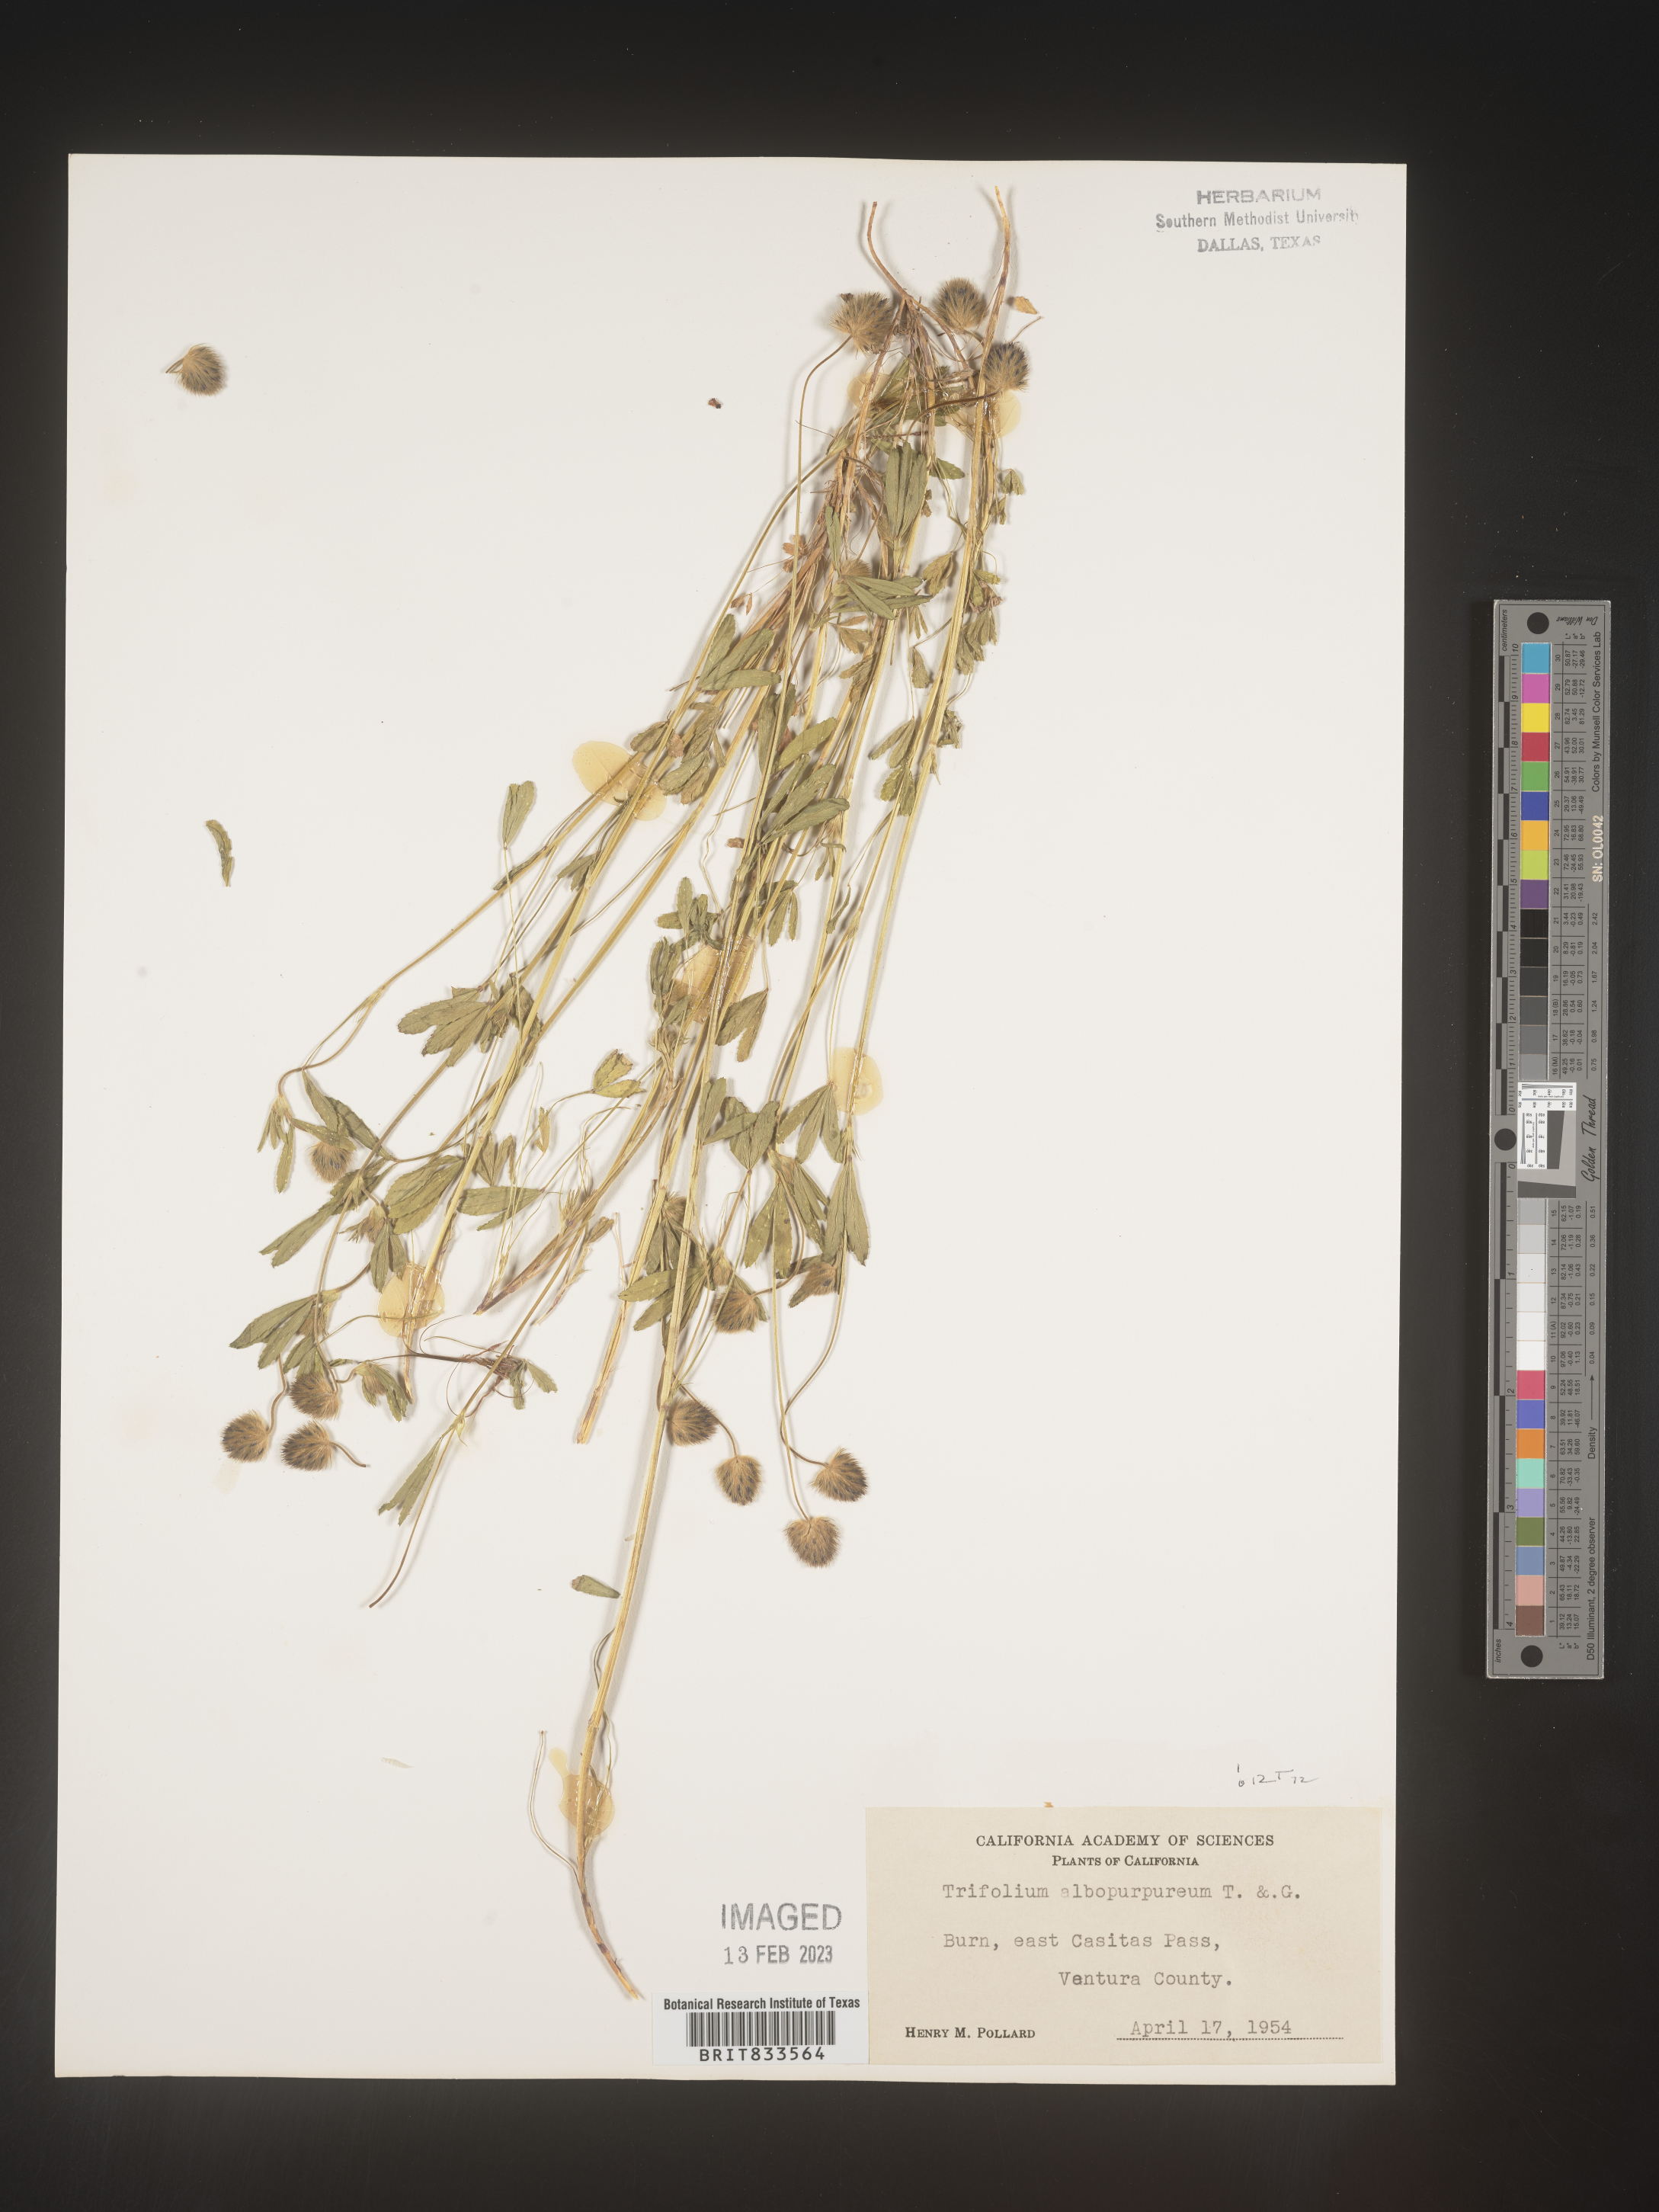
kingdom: Plantae
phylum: Tracheophyta
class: Magnoliopsida
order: Fabales
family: Fabaceae
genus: Trifolium
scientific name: Trifolium
